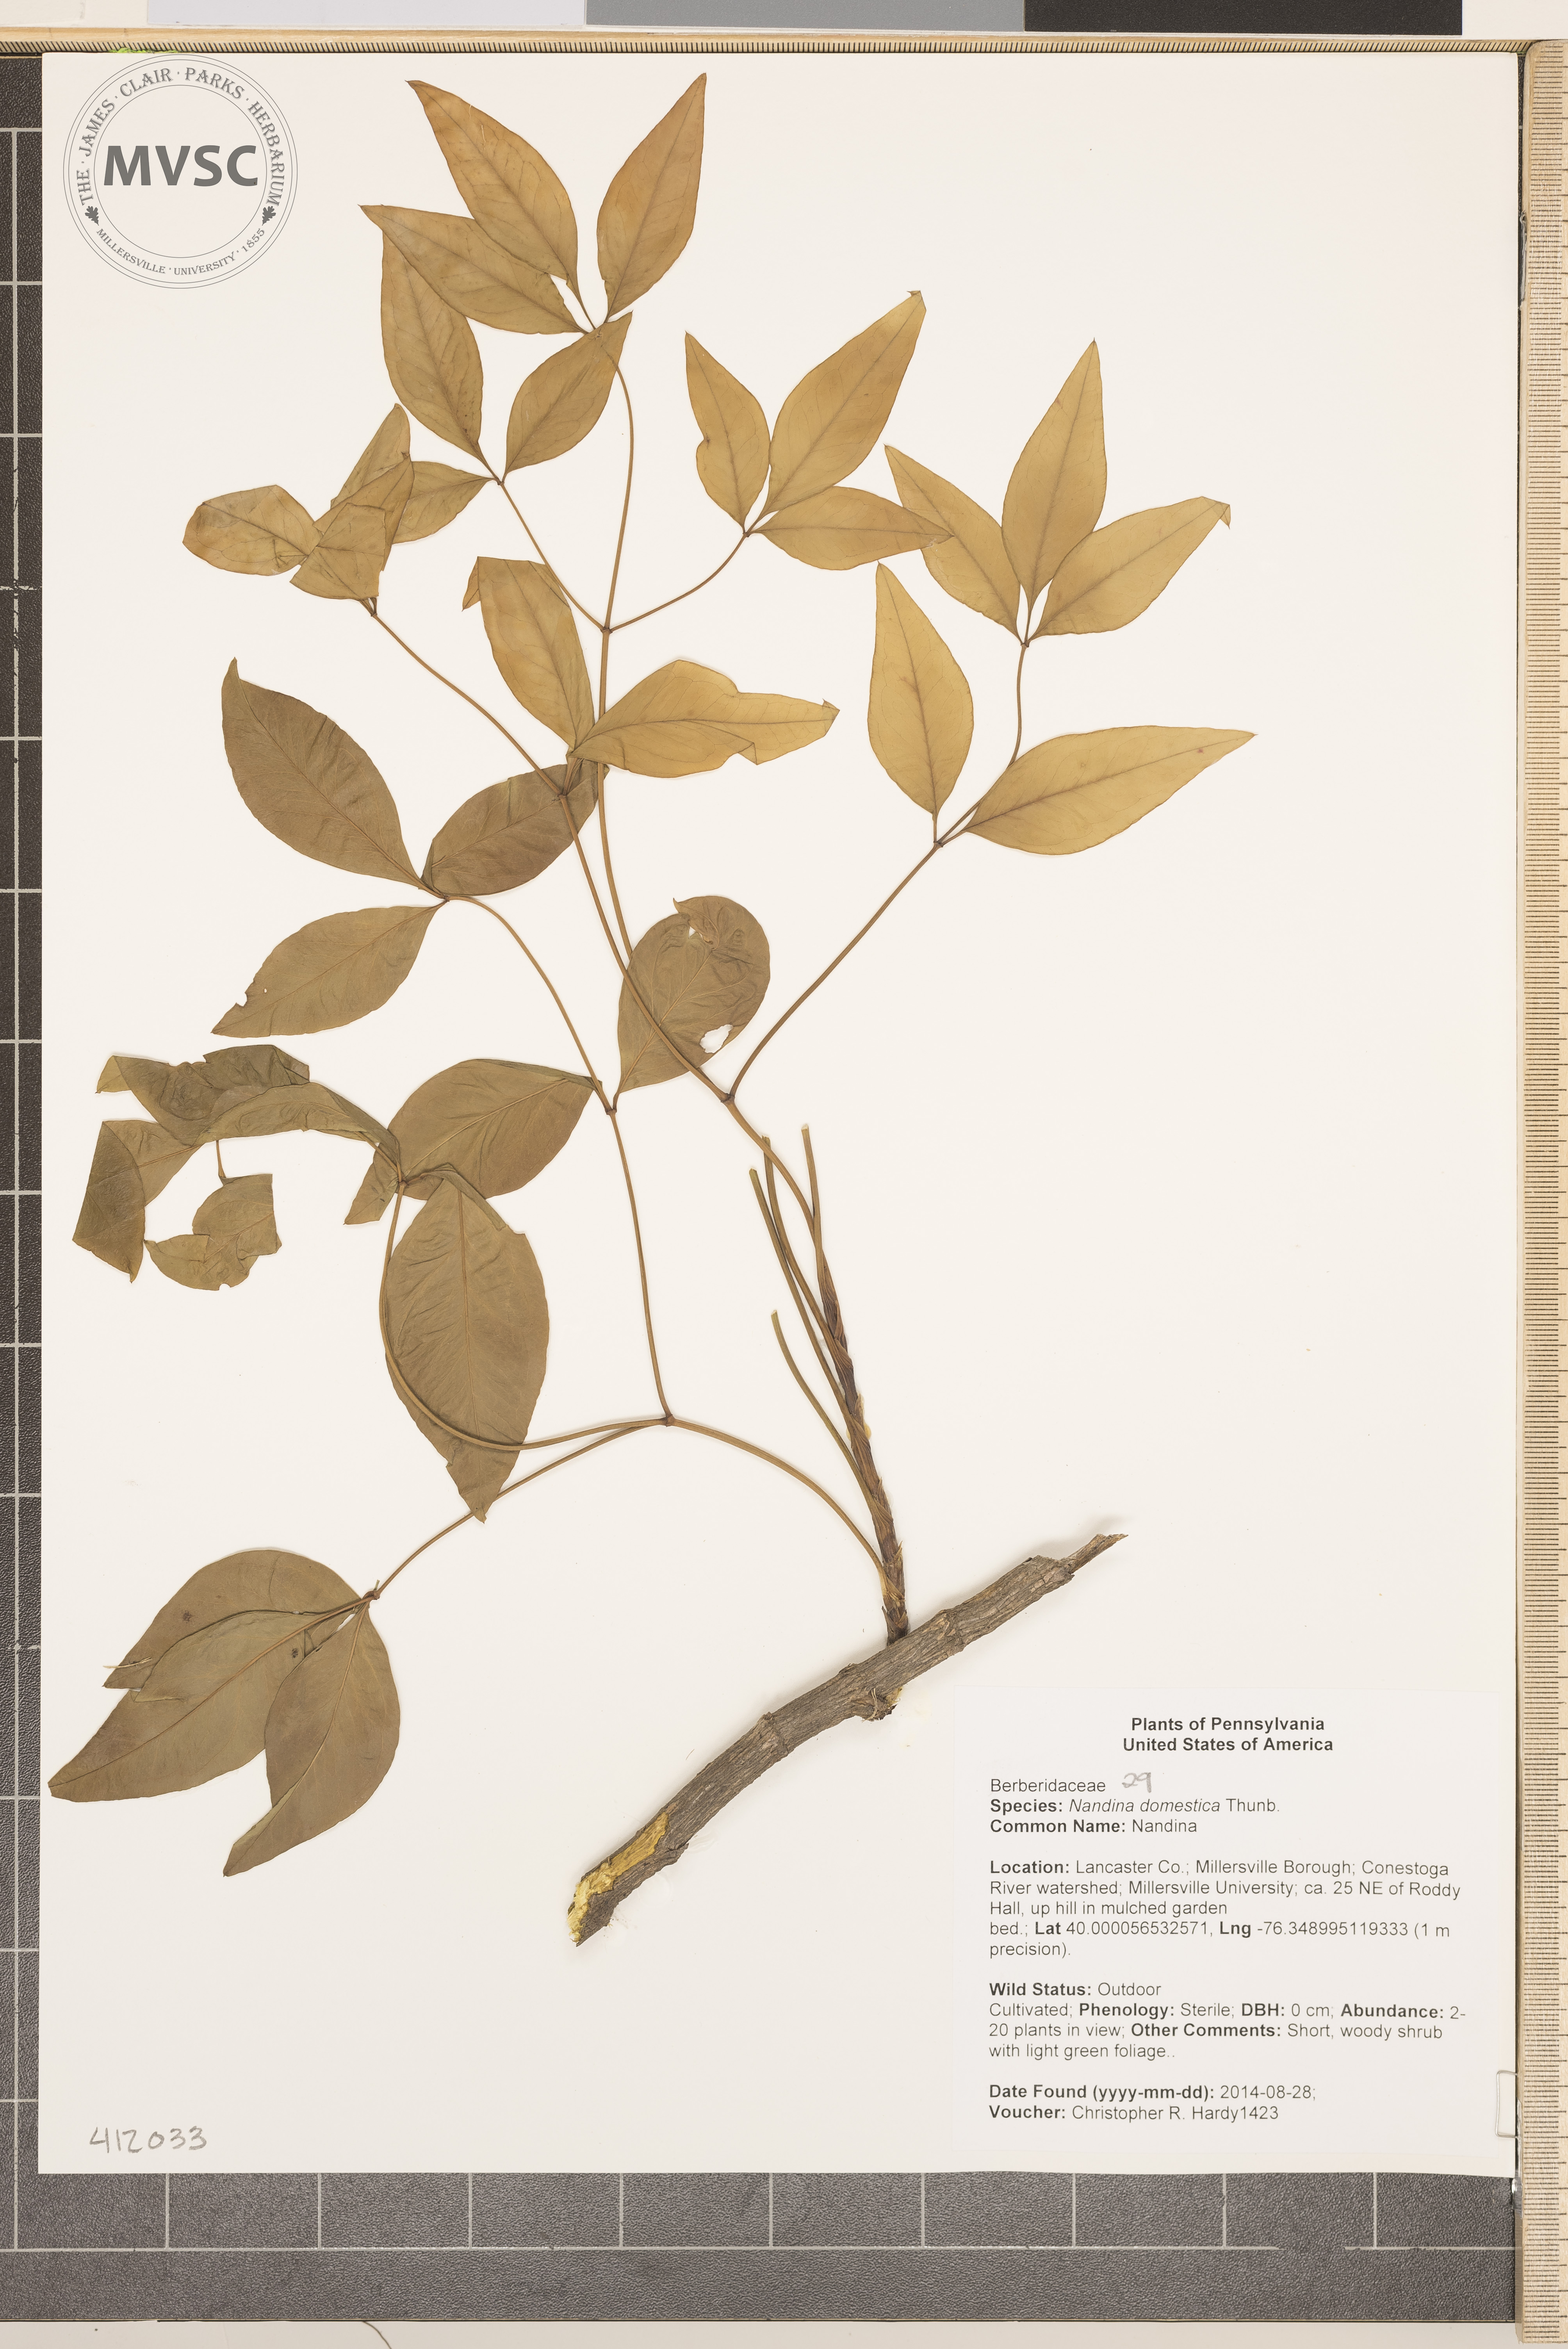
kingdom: Plantae
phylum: Tracheophyta
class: Magnoliopsida
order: Ranunculales
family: Berberidaceae
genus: Nandina
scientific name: Nandina domestica
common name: Nandina
